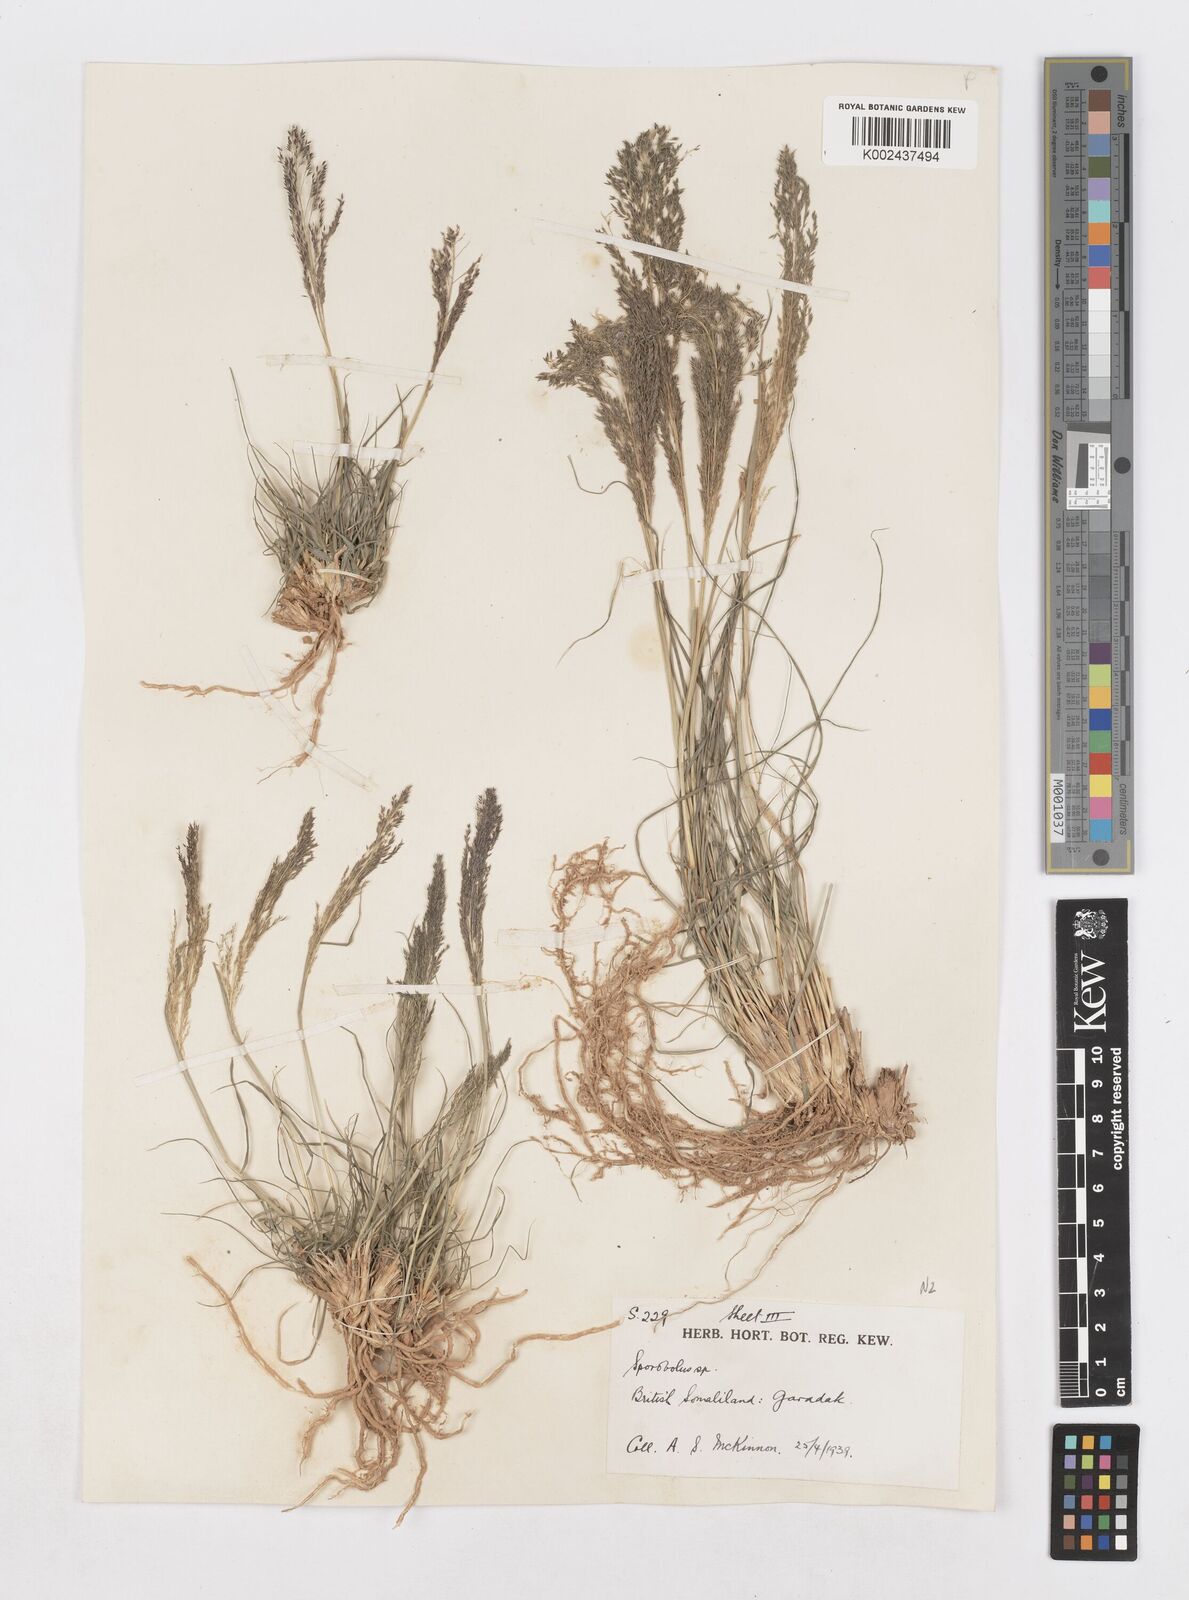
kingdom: Plantae
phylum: Tracheophyta
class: Liliopsida
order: Poales
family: Poaceae
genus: Sporobolus
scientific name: Sporobolus nervosus
